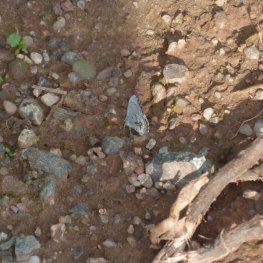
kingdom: Animalia
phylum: Arthropoda
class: Insecta
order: Lepidoptera
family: Lycaenidae
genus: Celastrina
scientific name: Celastrina lucia
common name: Northern Spring Azure
